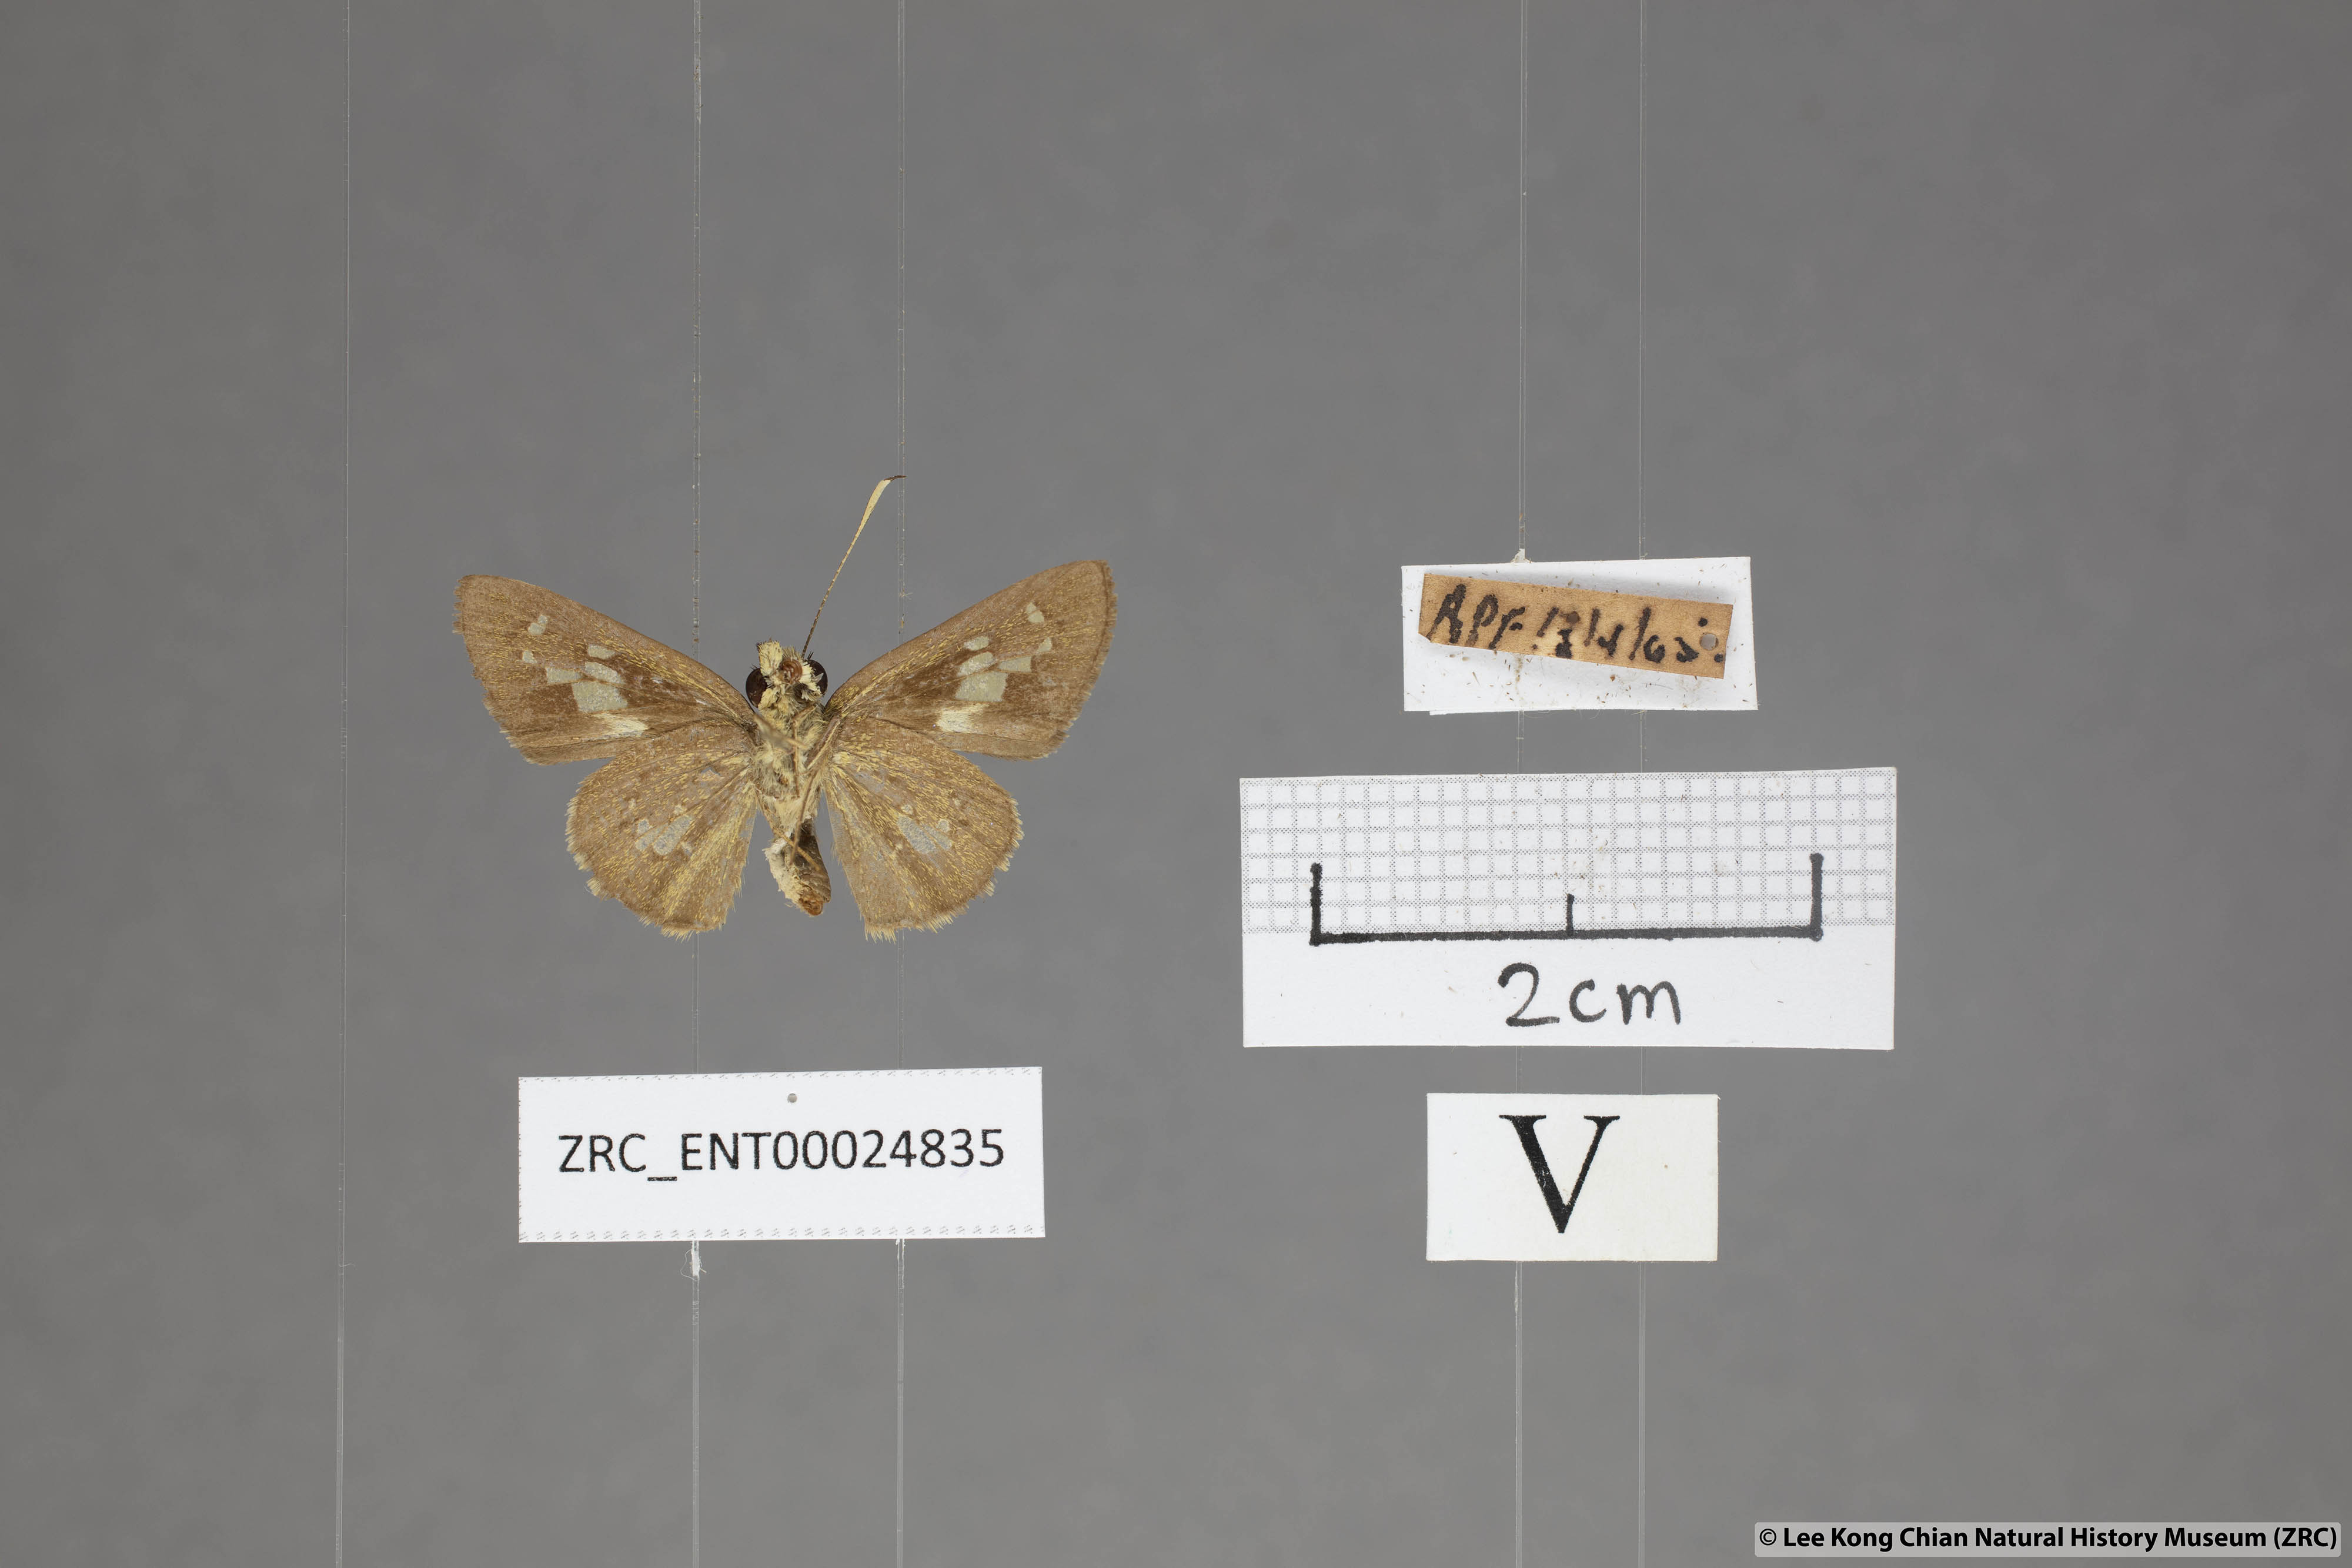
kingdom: Animalia
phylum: Arthropoda
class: Insecta
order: Lepidoptera
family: Hesperiidae
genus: Isma
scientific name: Isma bononia
